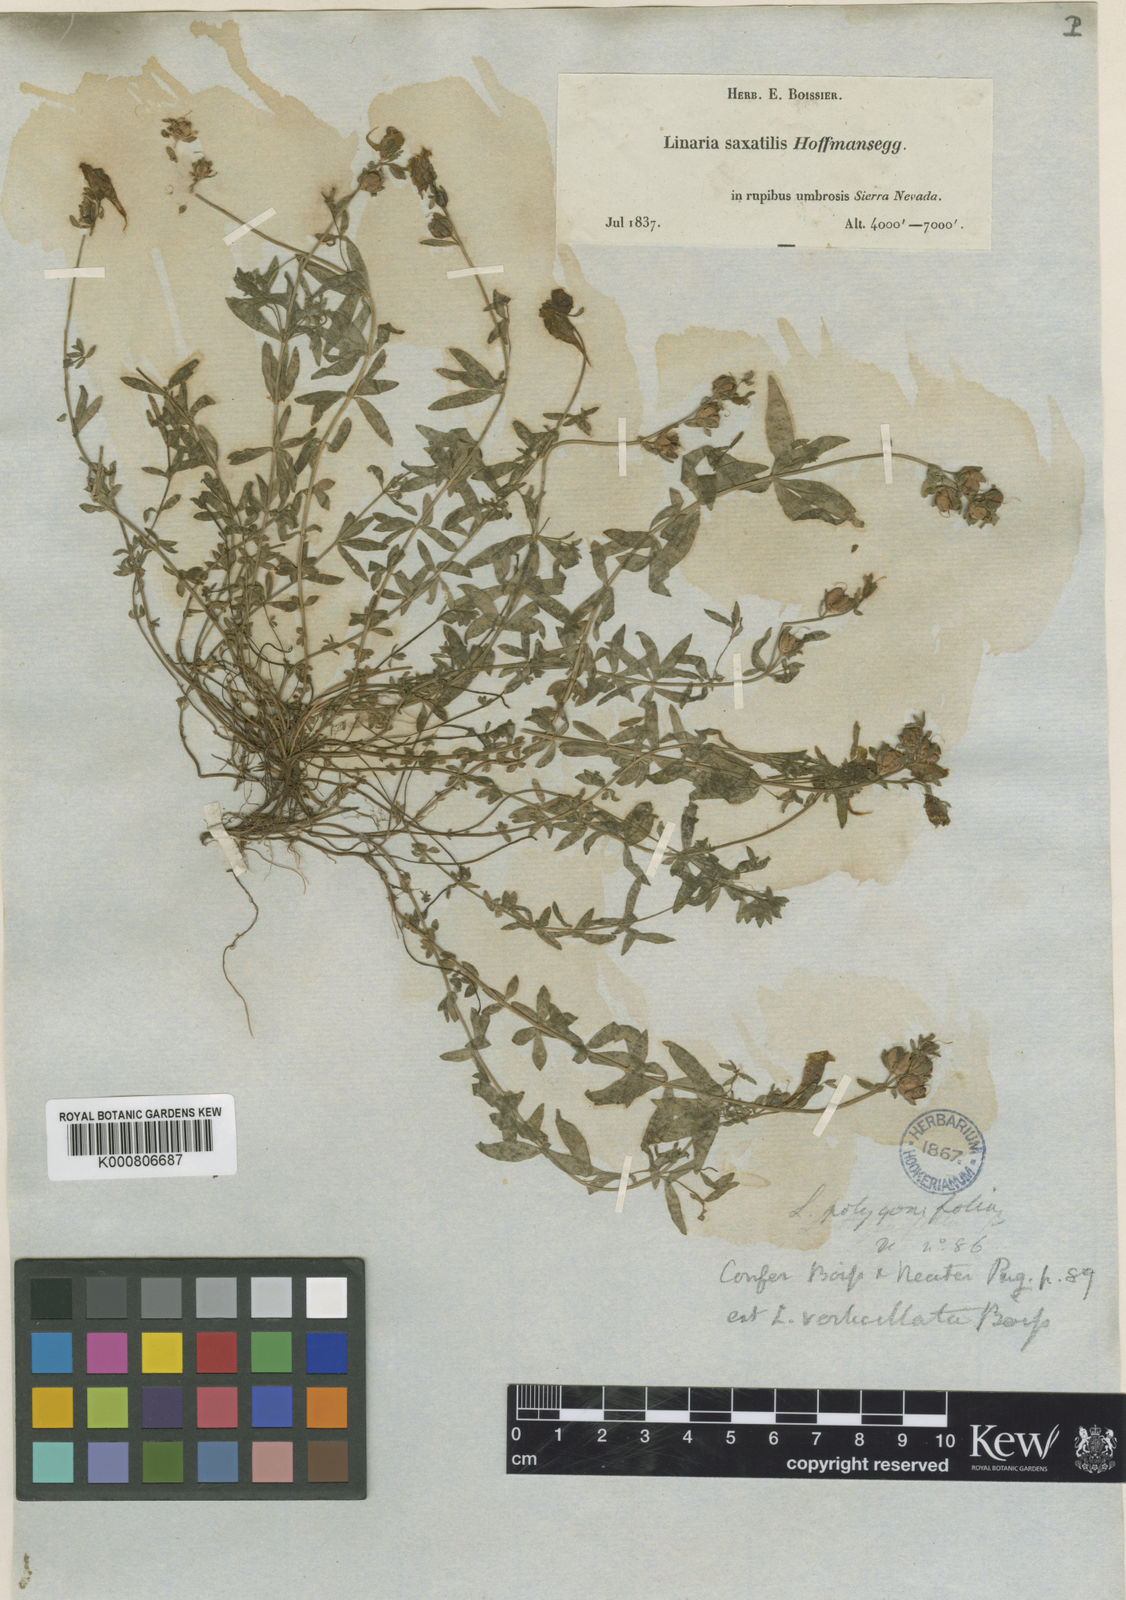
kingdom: Plantae
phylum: Tracheophyta
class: Magnoliopsida
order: Lamiales
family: Plantaginaceae
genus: Linaria
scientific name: Linaria verticillata
